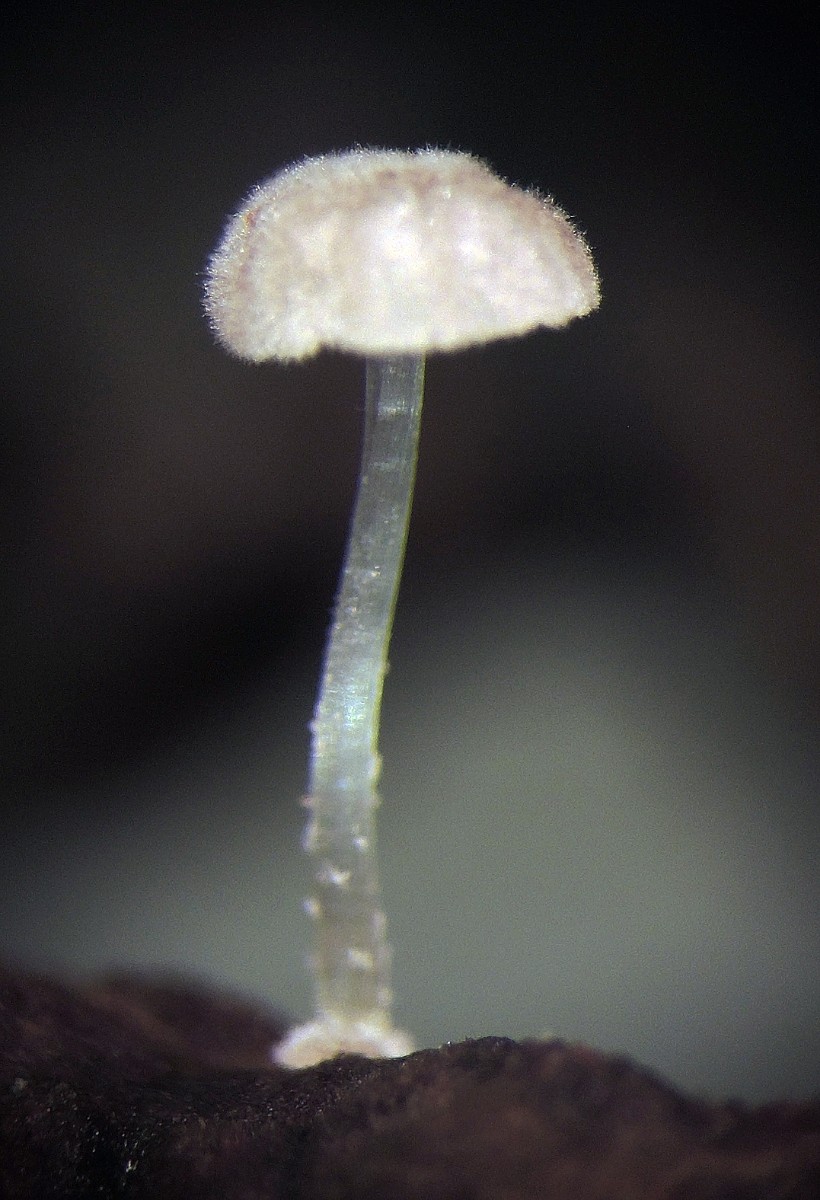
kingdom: Fungi
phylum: Basidiomycota
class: Agaricomycetes
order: Agaricales
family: Mycenaceae
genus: Mycena
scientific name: Mycena clavularis
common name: dunskivet huesvamp
